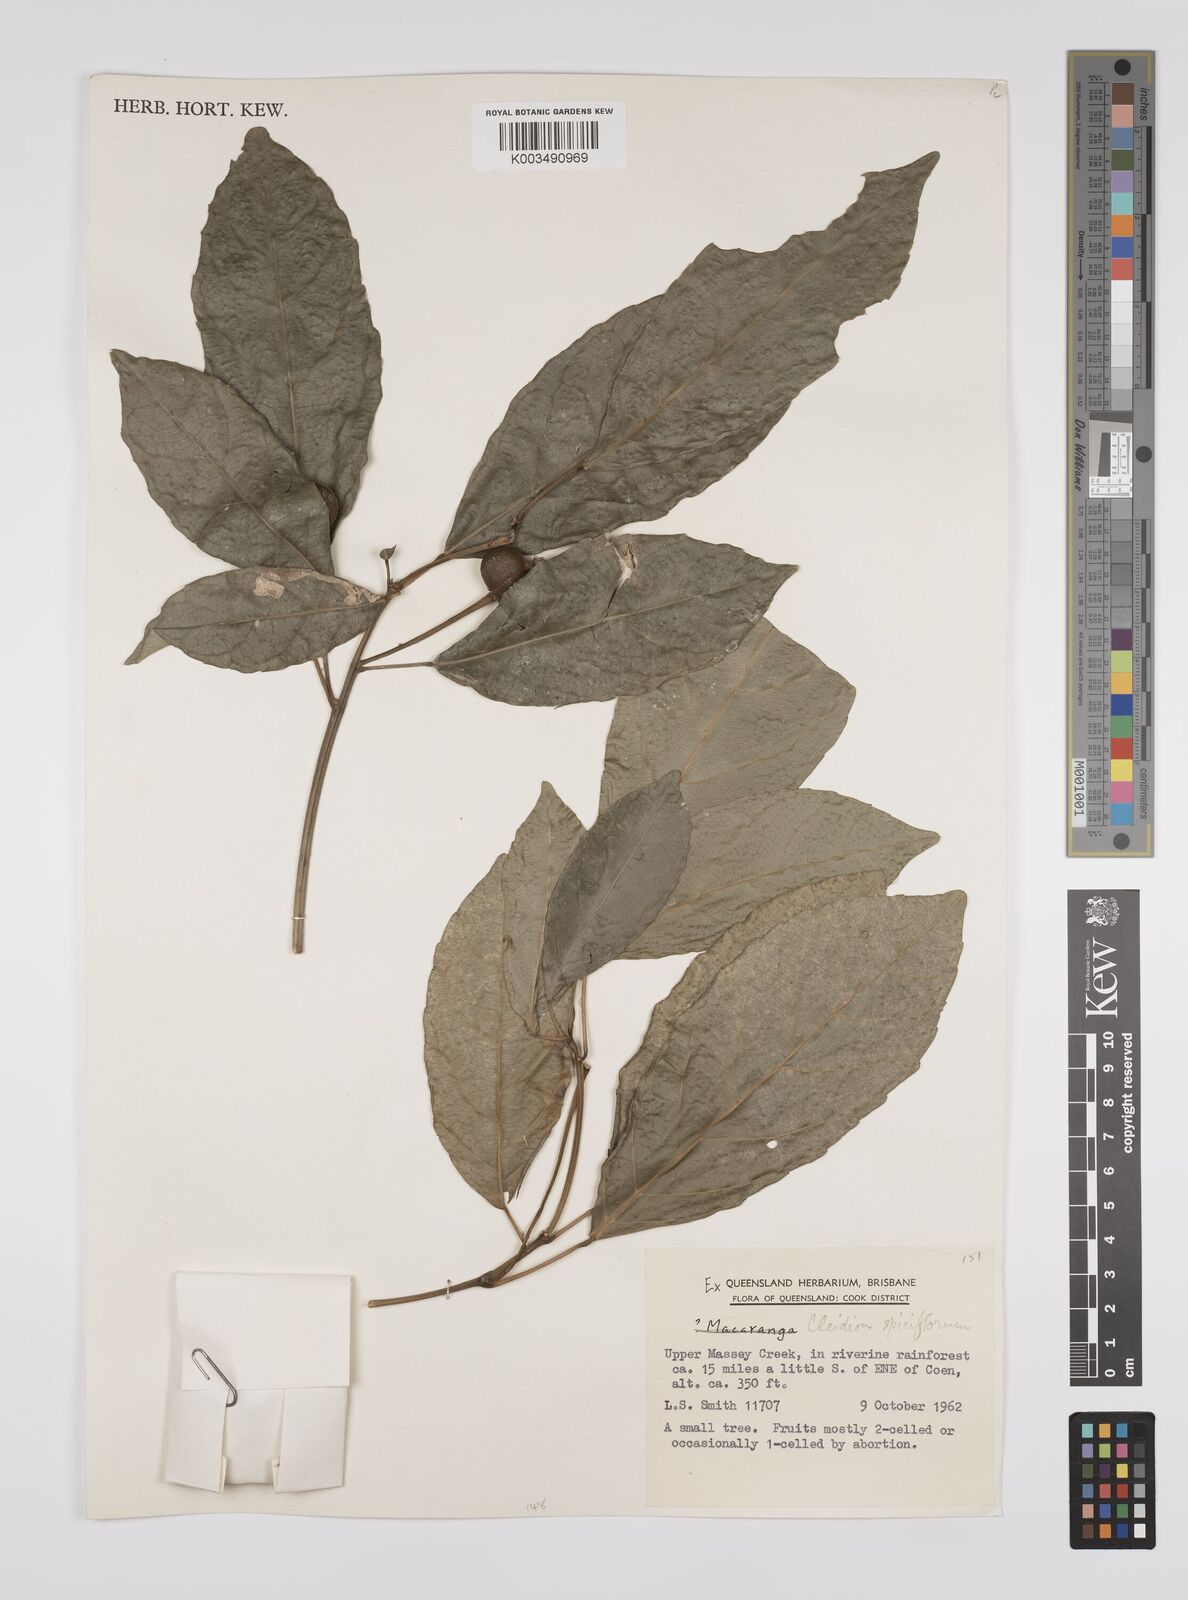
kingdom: Plantae
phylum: Tracheophyta
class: Magnoliopsida
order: Malpighiales
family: Euphorbiaceae
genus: Cleidion
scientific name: Cleidion javanicum
